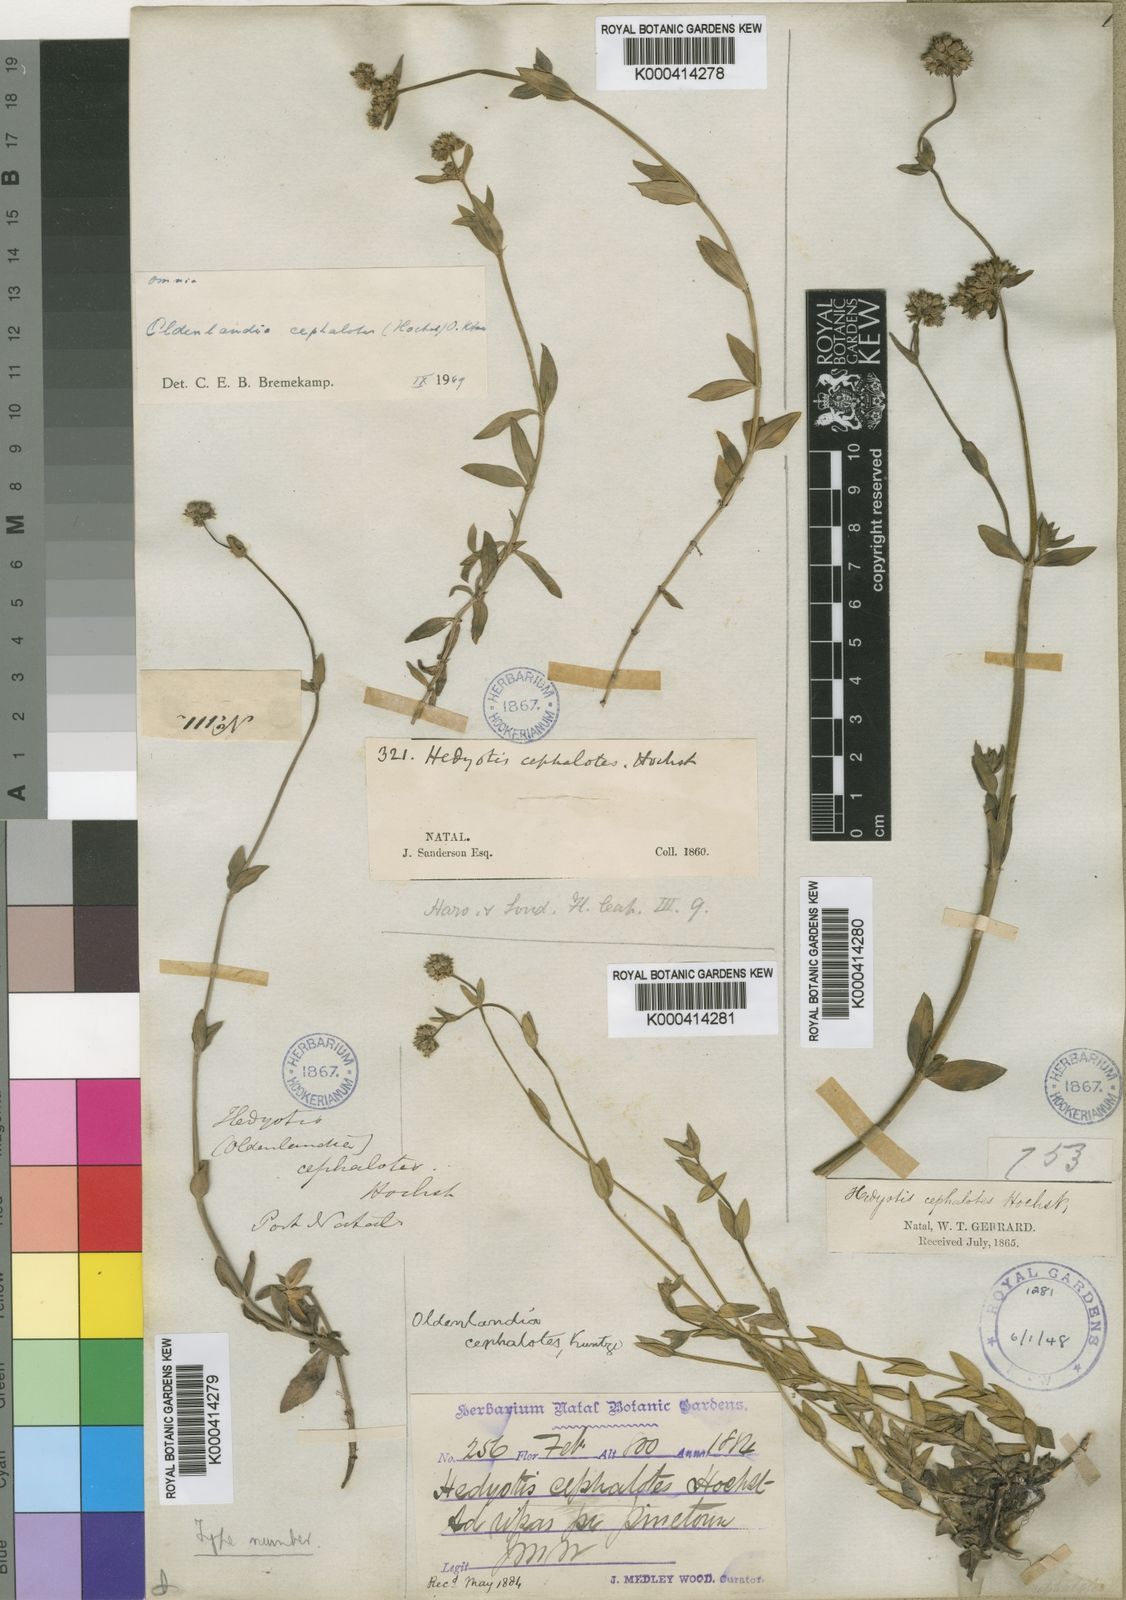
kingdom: Plantae
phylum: Tracheophyta
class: Magnoliopsida
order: Gentianales
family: Rubiaceae
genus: Edrastima
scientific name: Edrastima cephalotes
